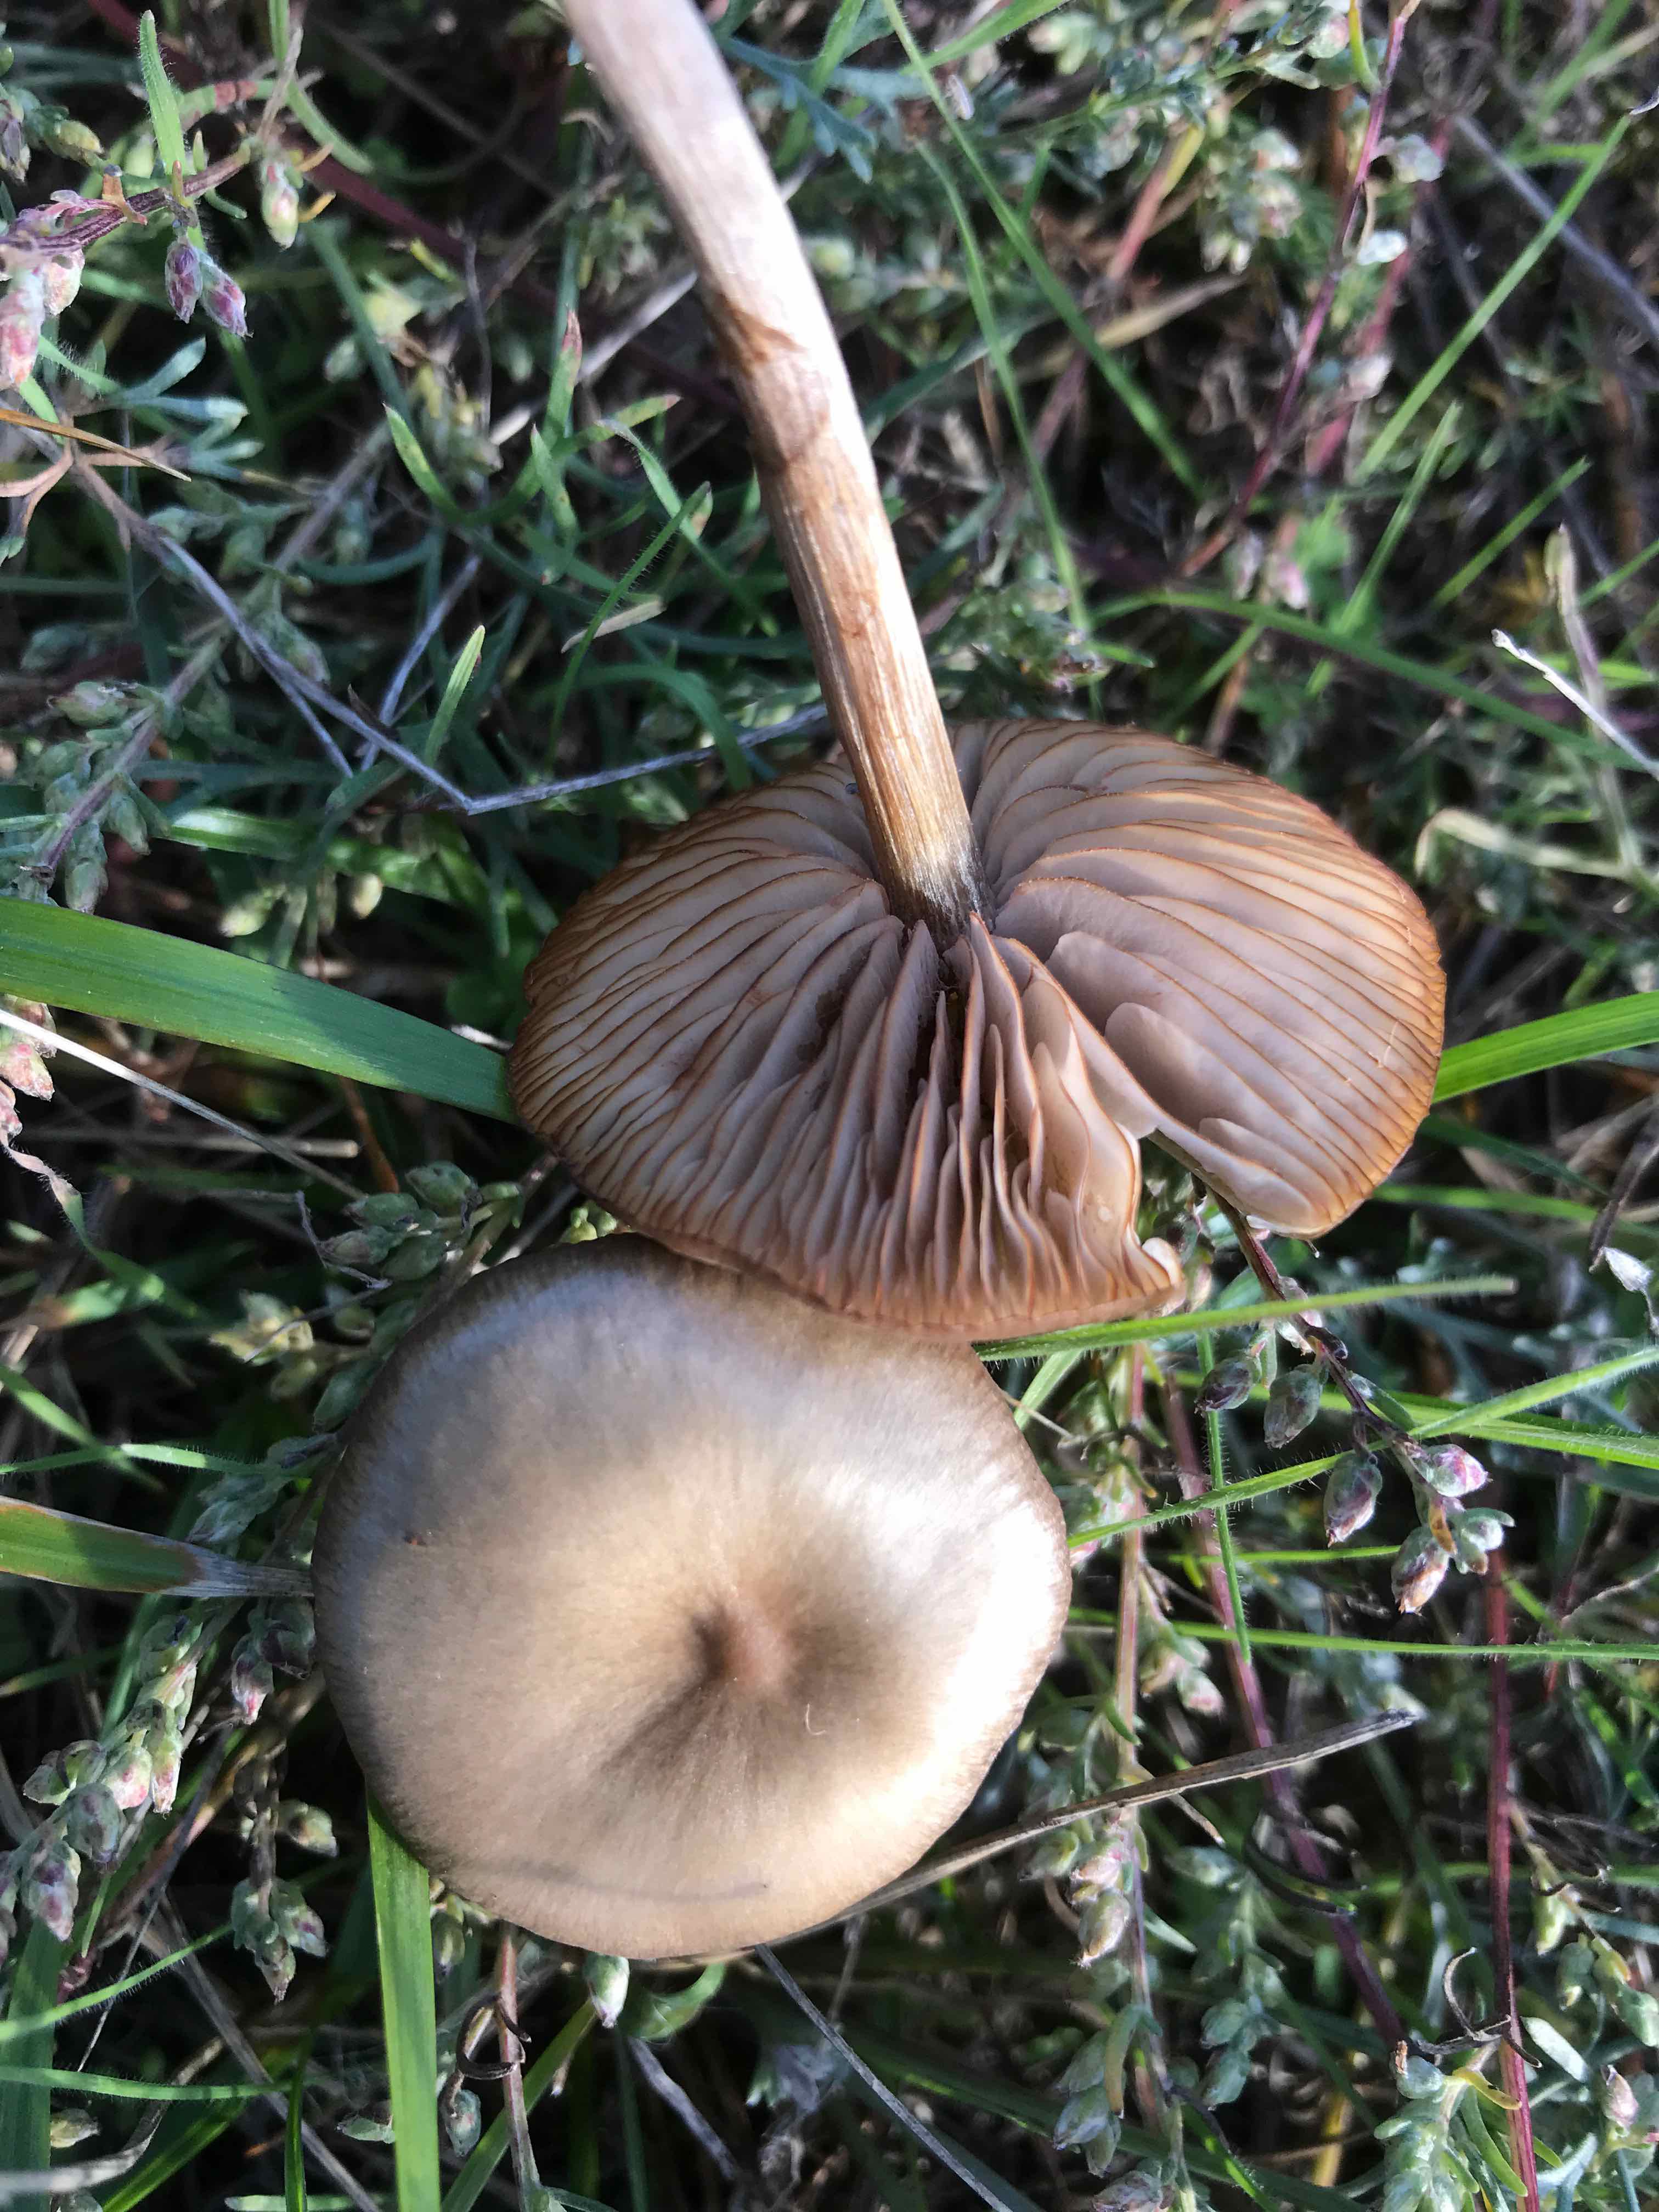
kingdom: Fungi
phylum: Basidiomycota
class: Agaricomycetes
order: Agaricales
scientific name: Agaricales
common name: champignonordenen
